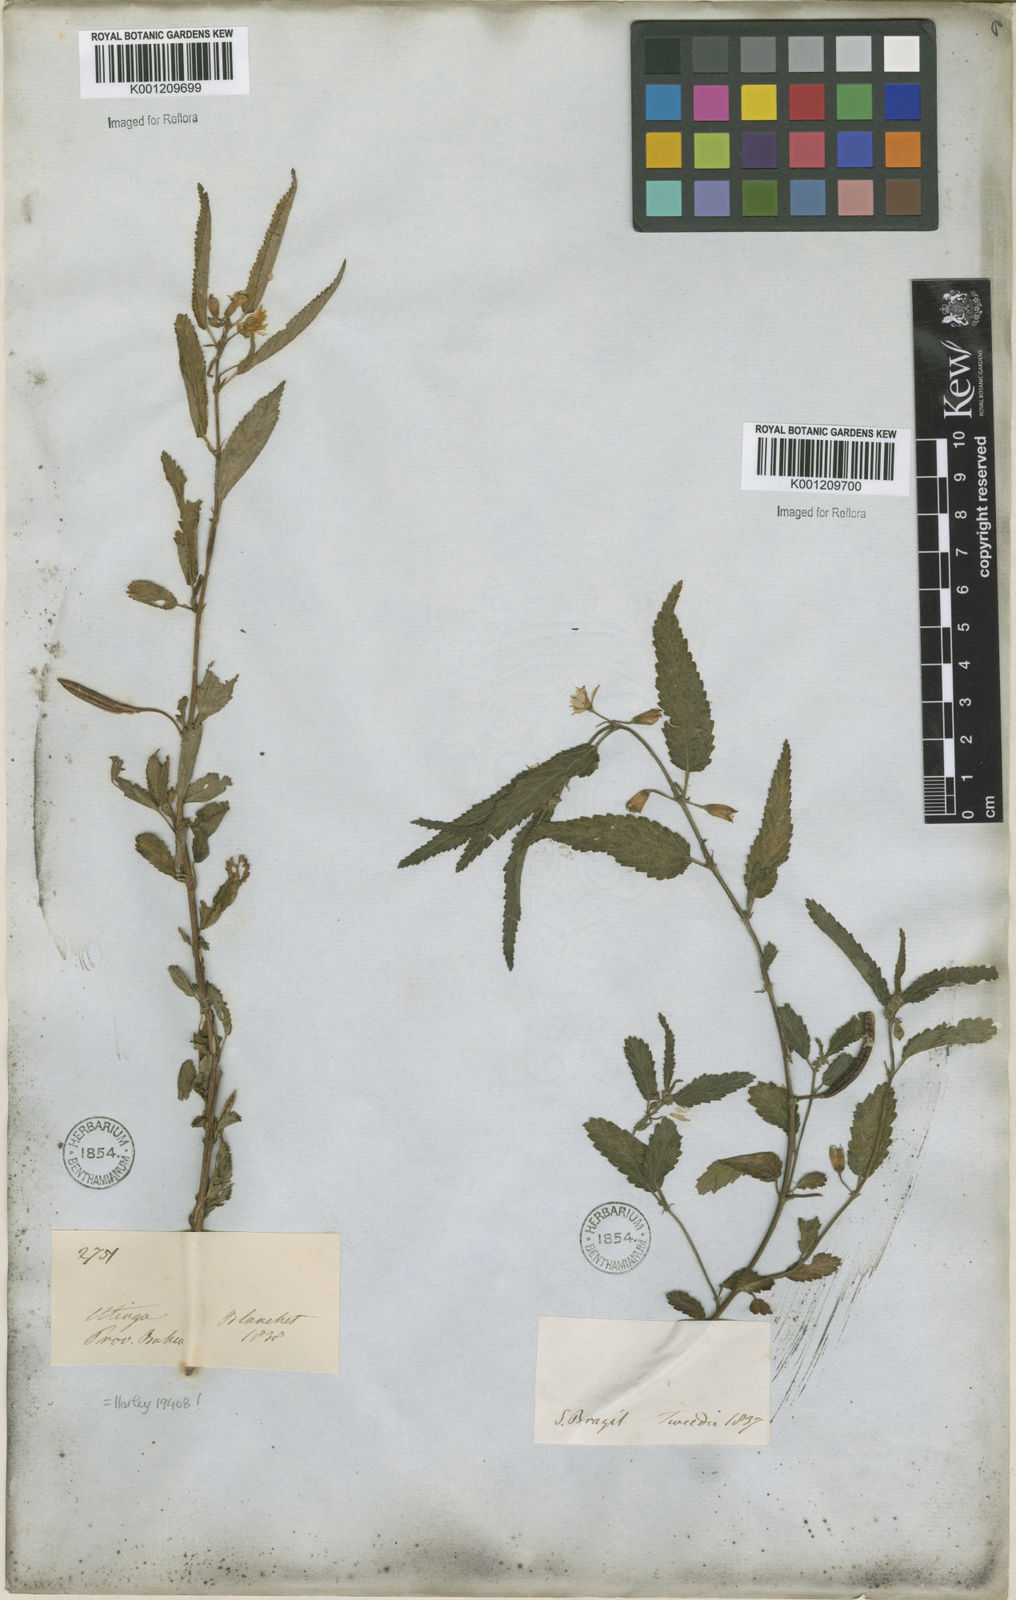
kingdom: Plantae
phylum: Tracheophyta
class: Magnoliopsida
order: Malvales
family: Malvaceae
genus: Corchorus
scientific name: Corchorus
